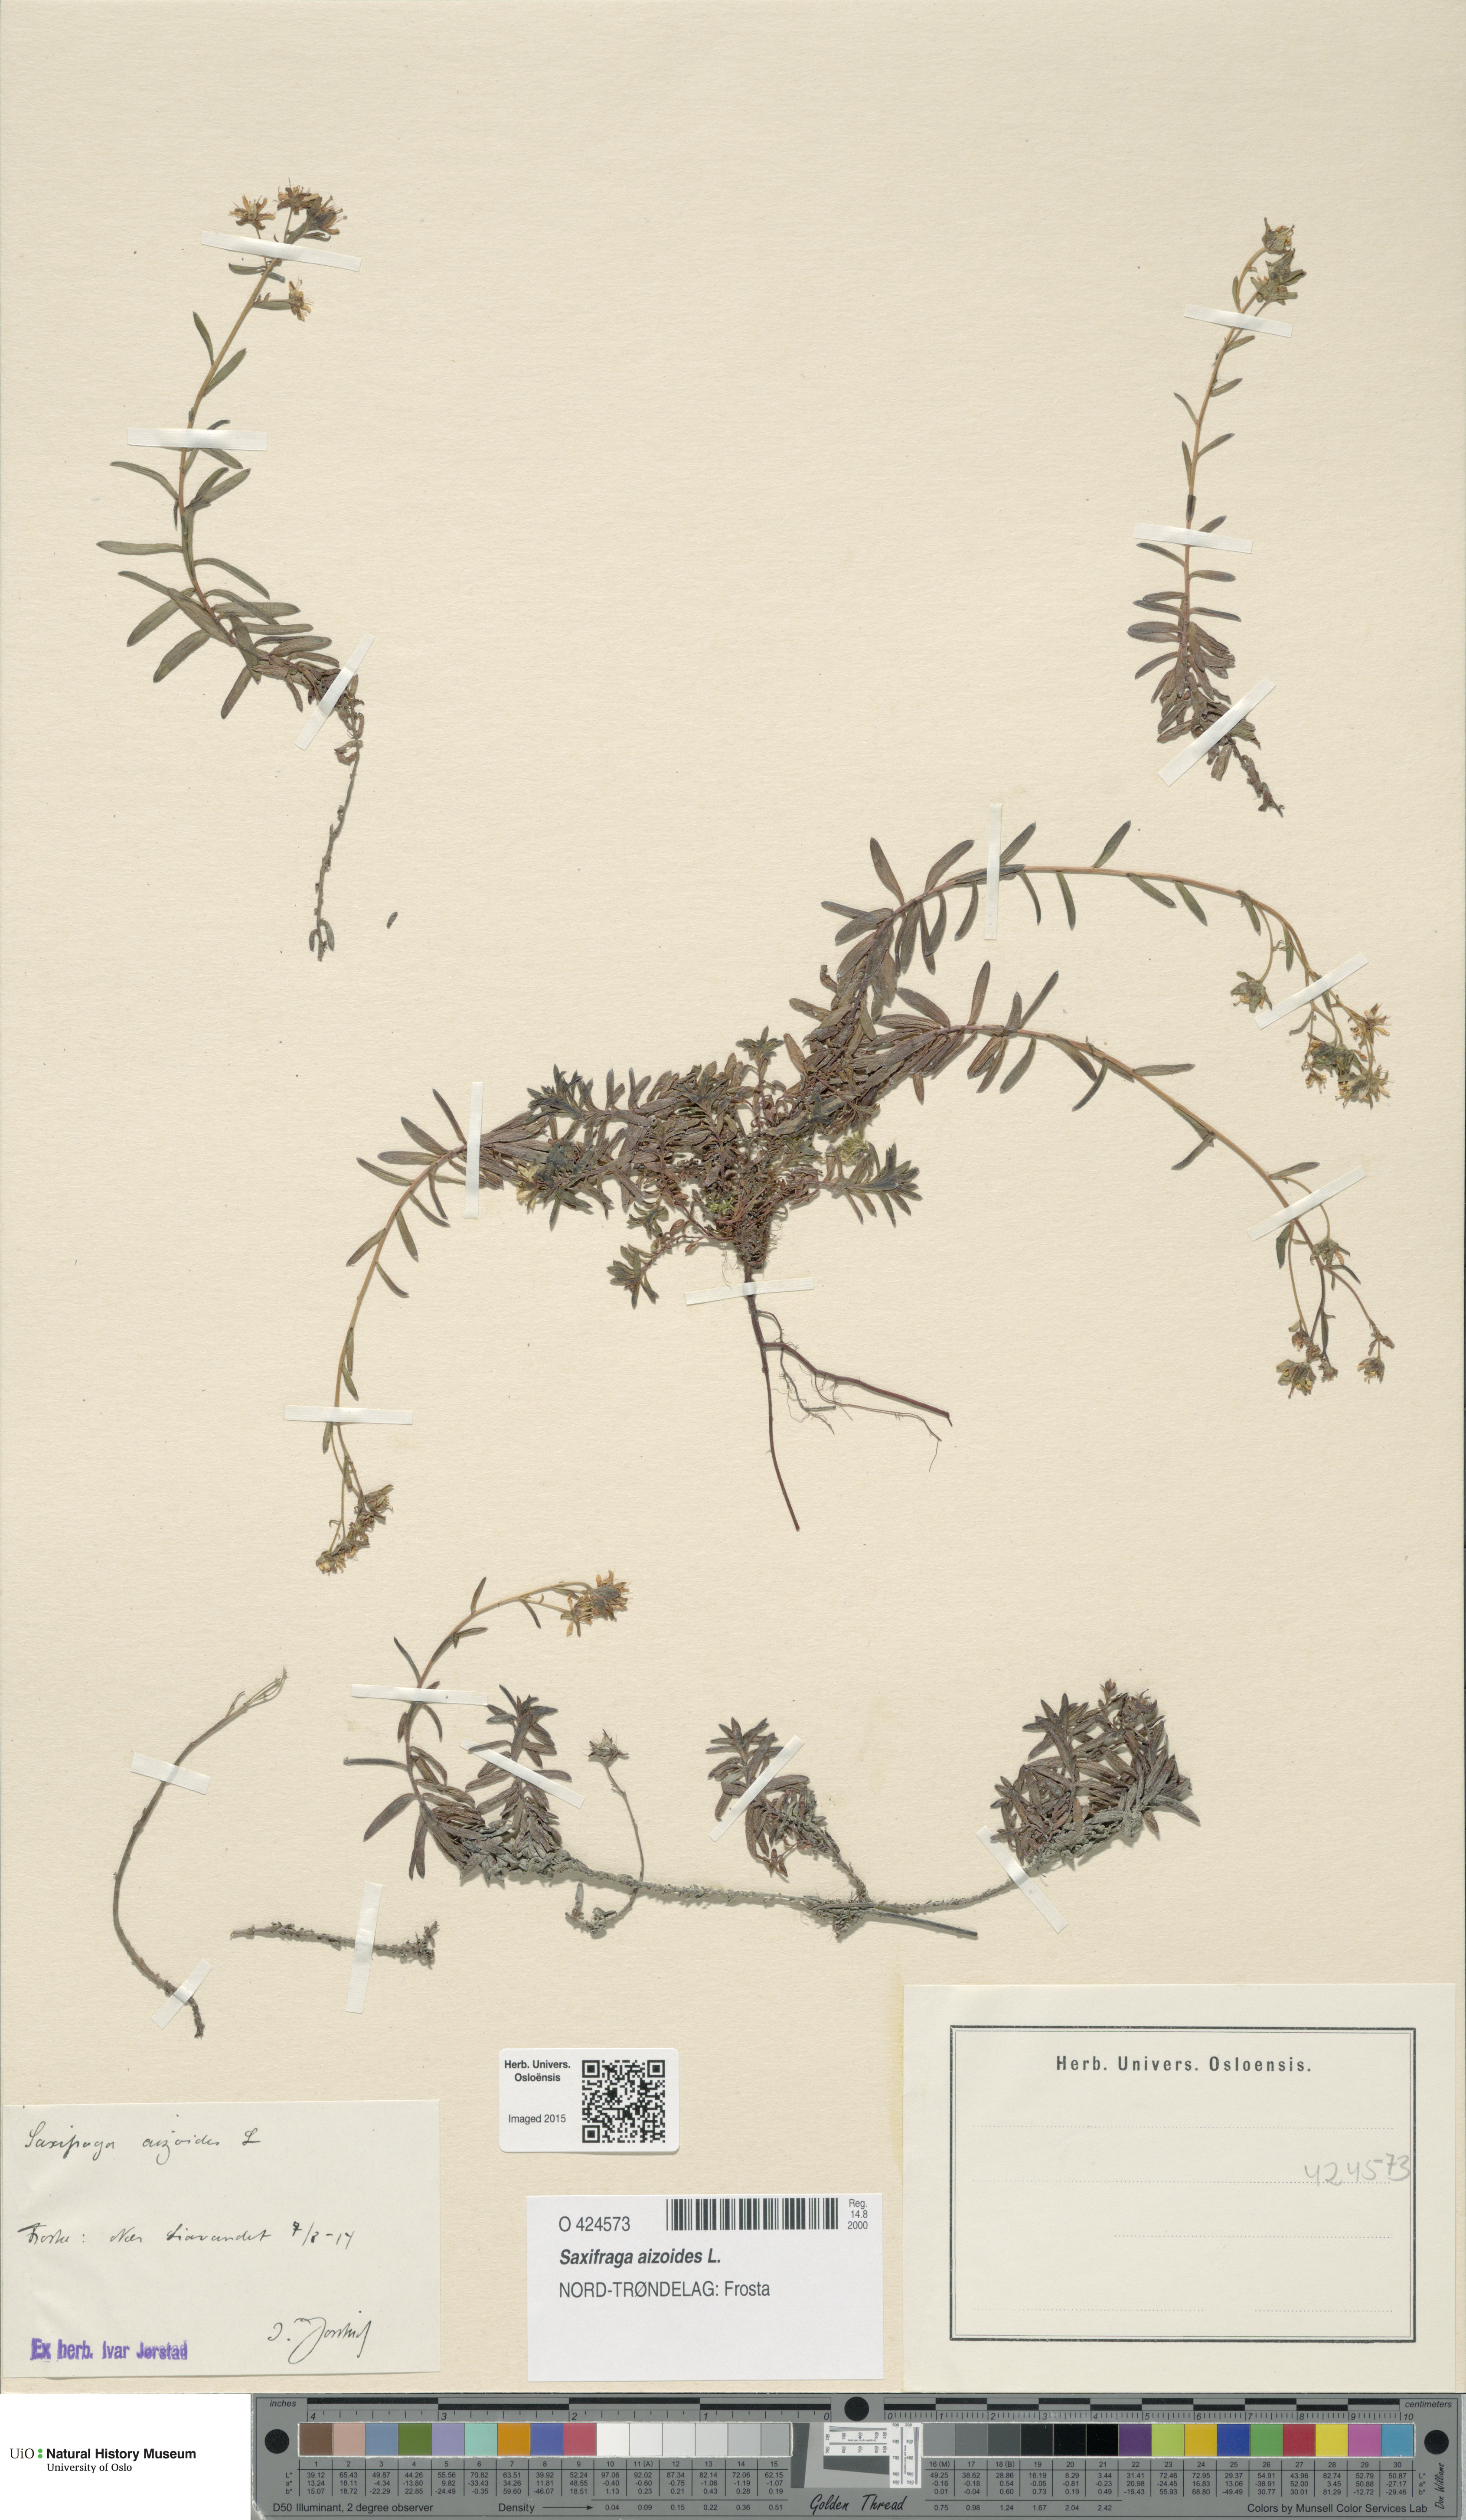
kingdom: Plantae
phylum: Tracheophyta
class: Magnoliopsida
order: Saxifragales
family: Saxifragaceae
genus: Saxifraga
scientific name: Saxifraga aizoides
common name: Yellow mountain saxifrage
